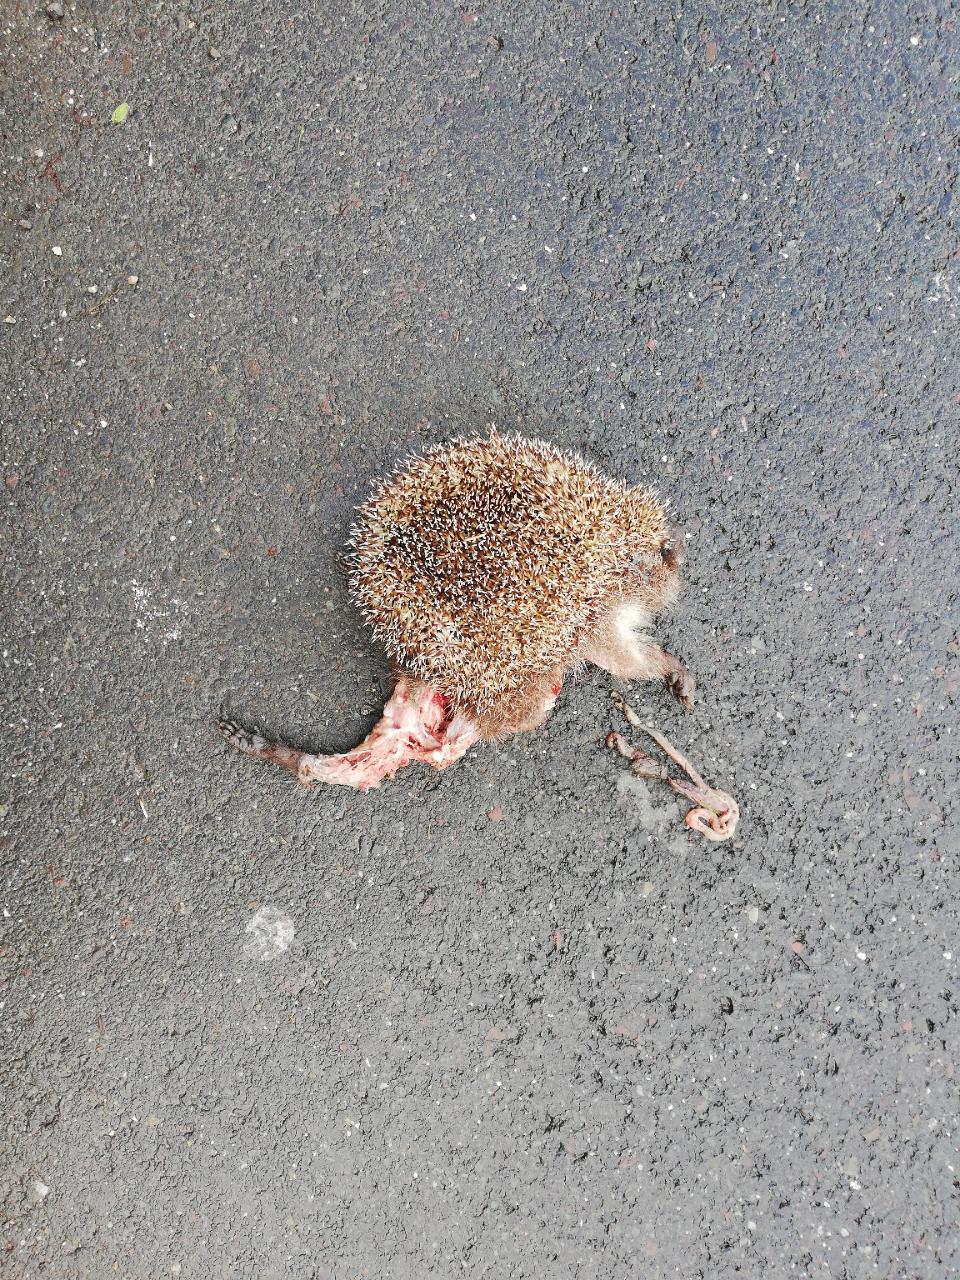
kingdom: Animalia
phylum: Chordata
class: Mammalia
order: Erinaceomorpha
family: Erinaceidae
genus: Erinaceus
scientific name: Erinaceus
